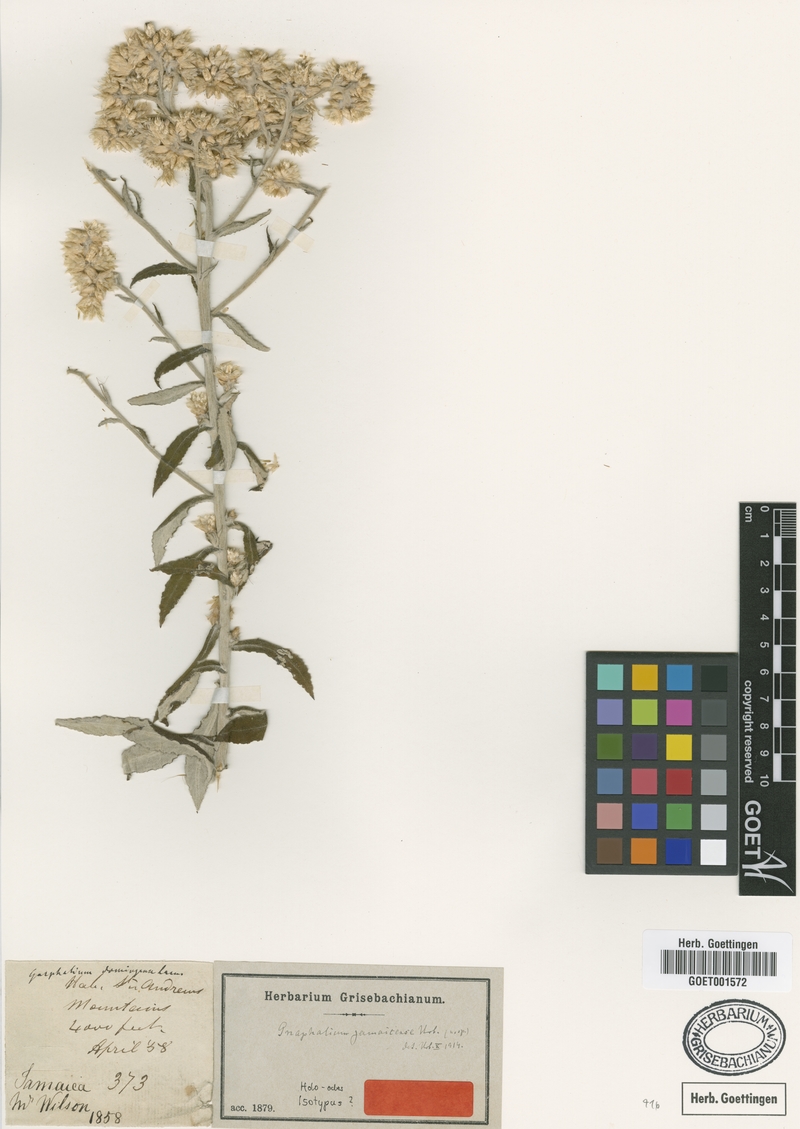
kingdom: Plantae
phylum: Tracheophyta
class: Magnoliopsida
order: Asterales
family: Asteraceae
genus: Pseudognaphalium
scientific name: Pseudognaphalium domingense
